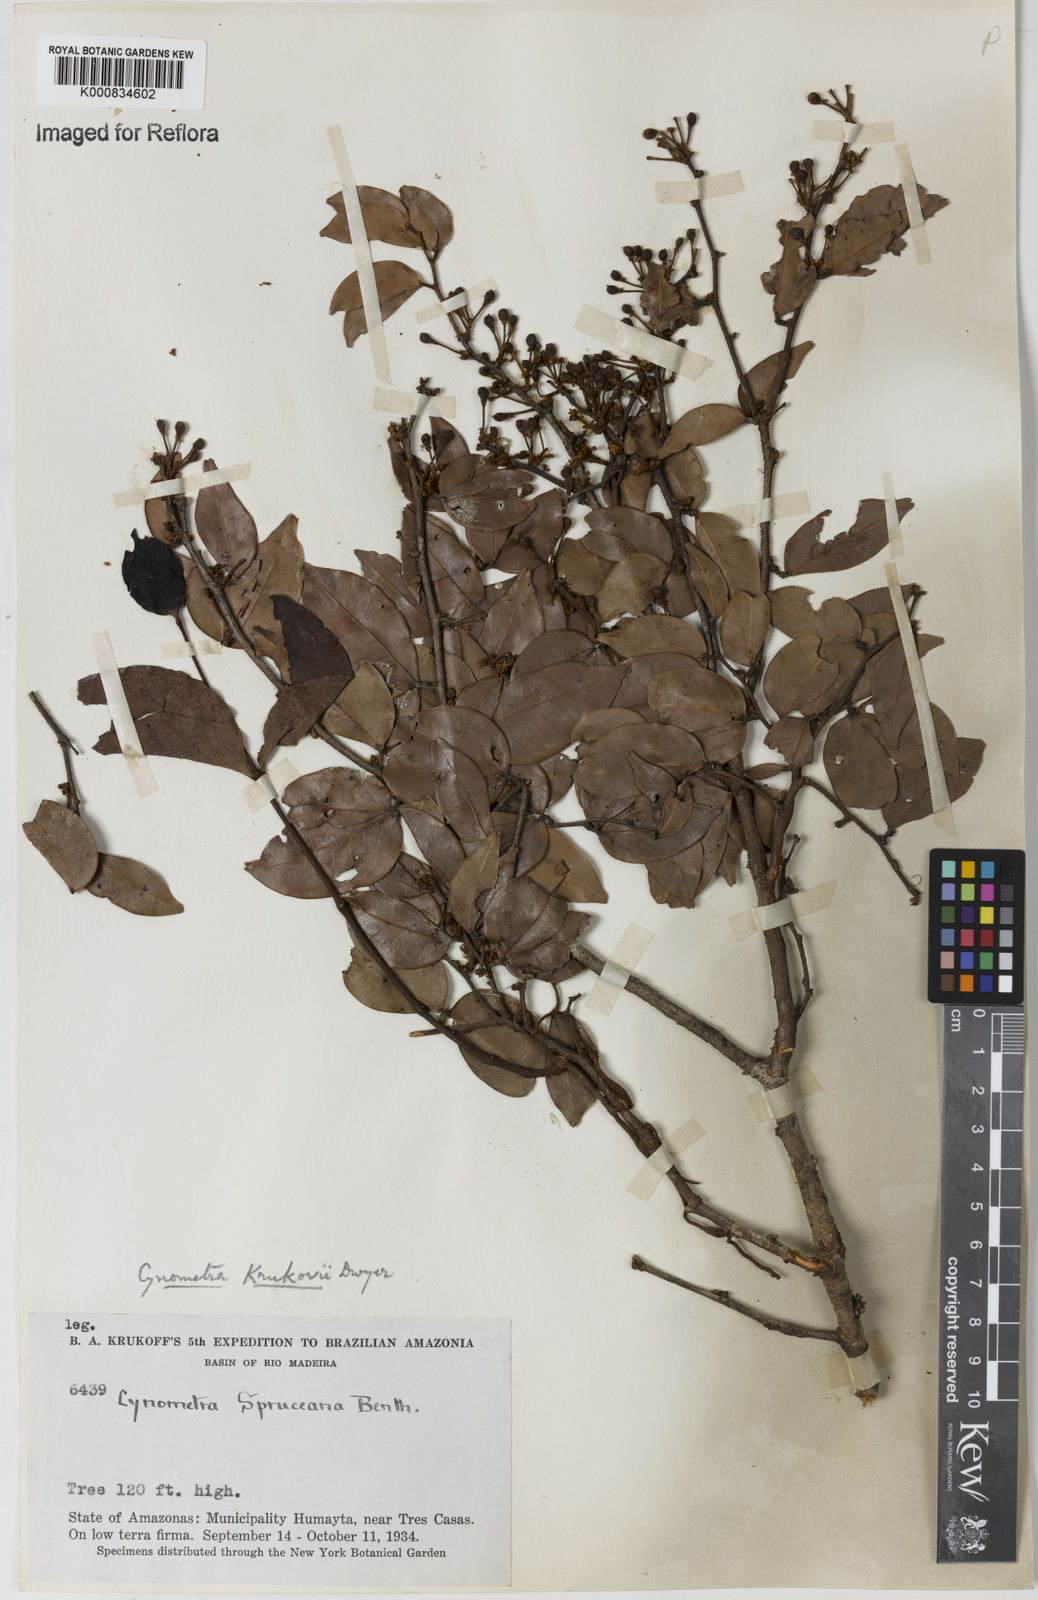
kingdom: Plantae
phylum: Tracheophyta
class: Magnoliopsida
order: Fabales
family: Fabaceae
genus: Cynometra
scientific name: Cynometra stenopetala
